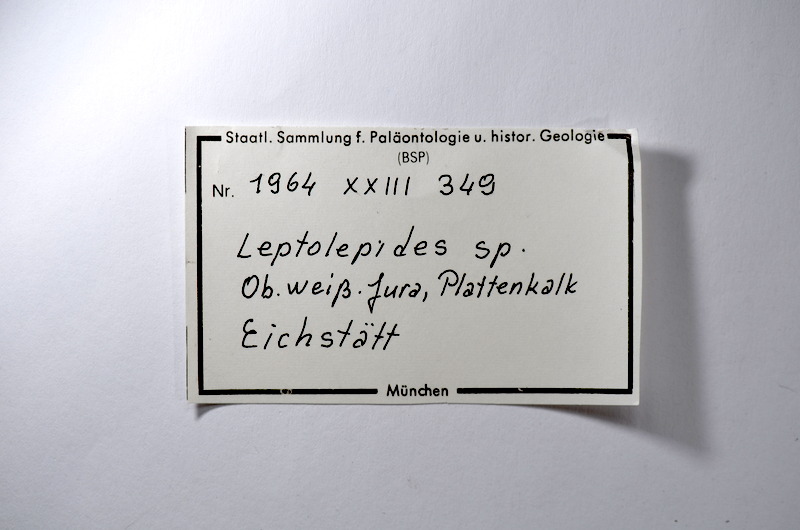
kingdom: Animalia
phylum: Chordata
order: Salmoniformes
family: Orthogonikleithridae
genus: Leptolepides
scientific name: Leptolepides
